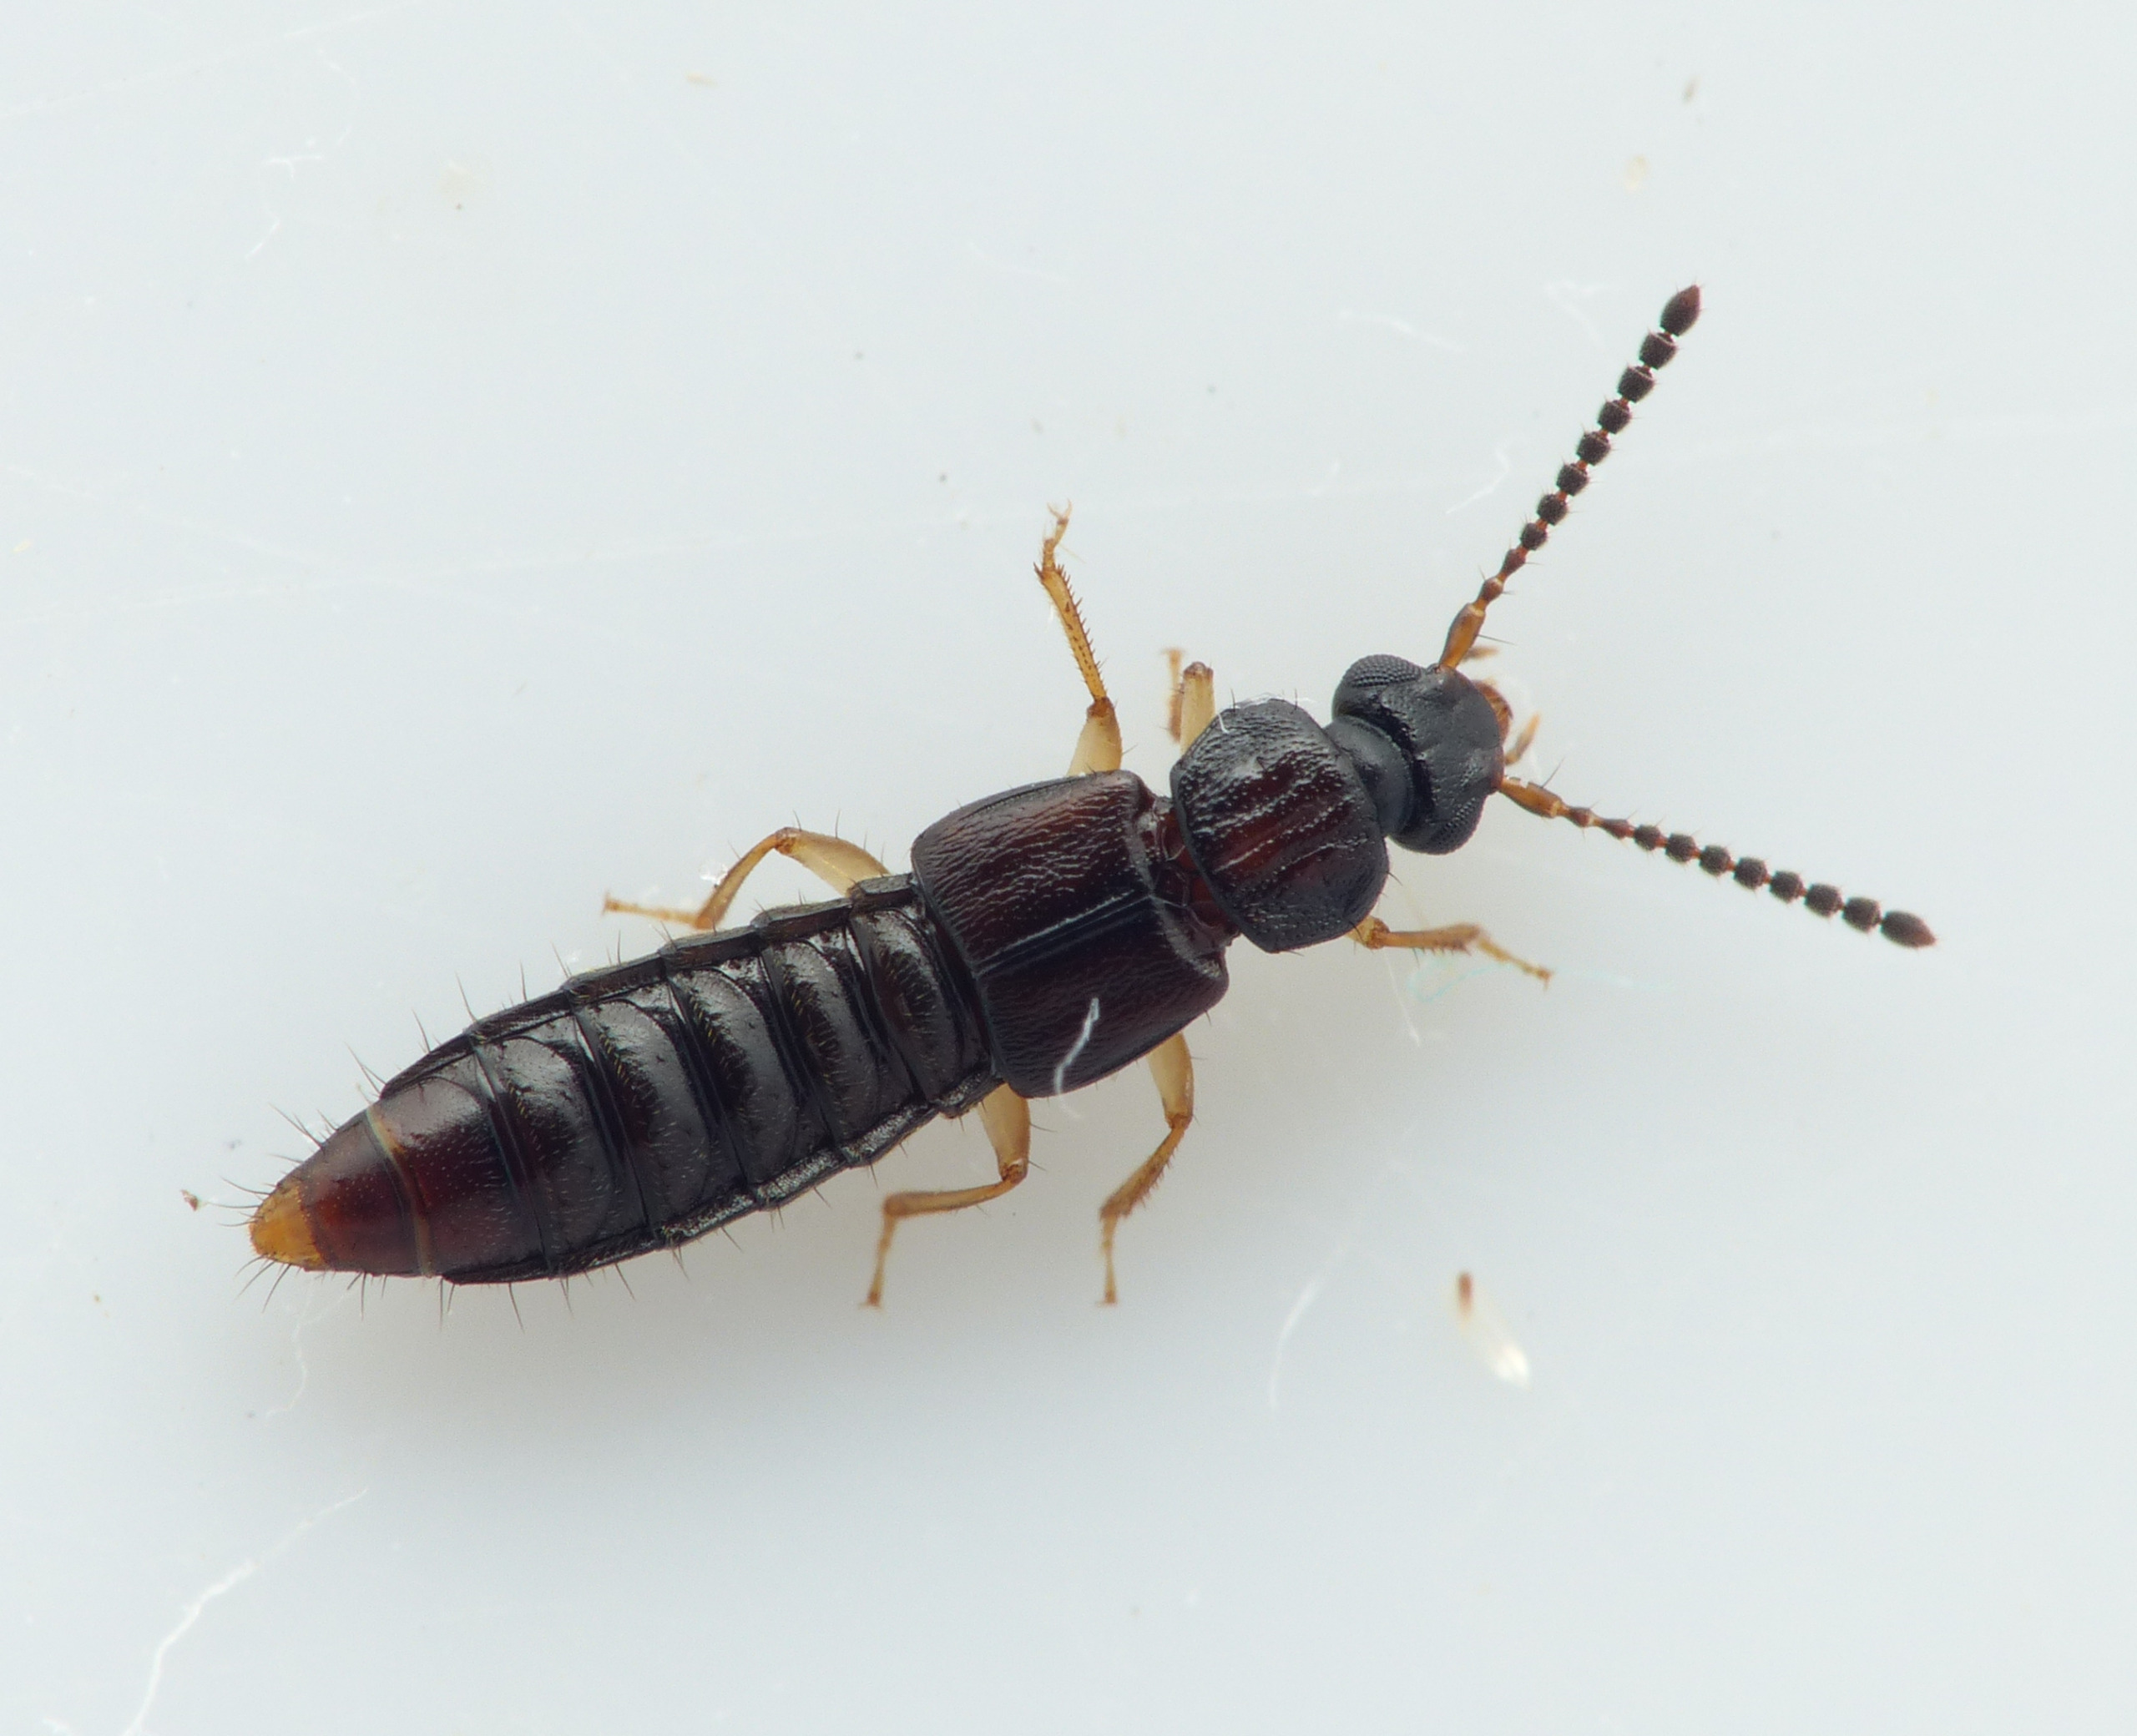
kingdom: Animalia
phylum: Arthropoda
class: Insecta
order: Coleoptera
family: Staphylinidae
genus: Oxytelus
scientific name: Oxytelus sculptus
